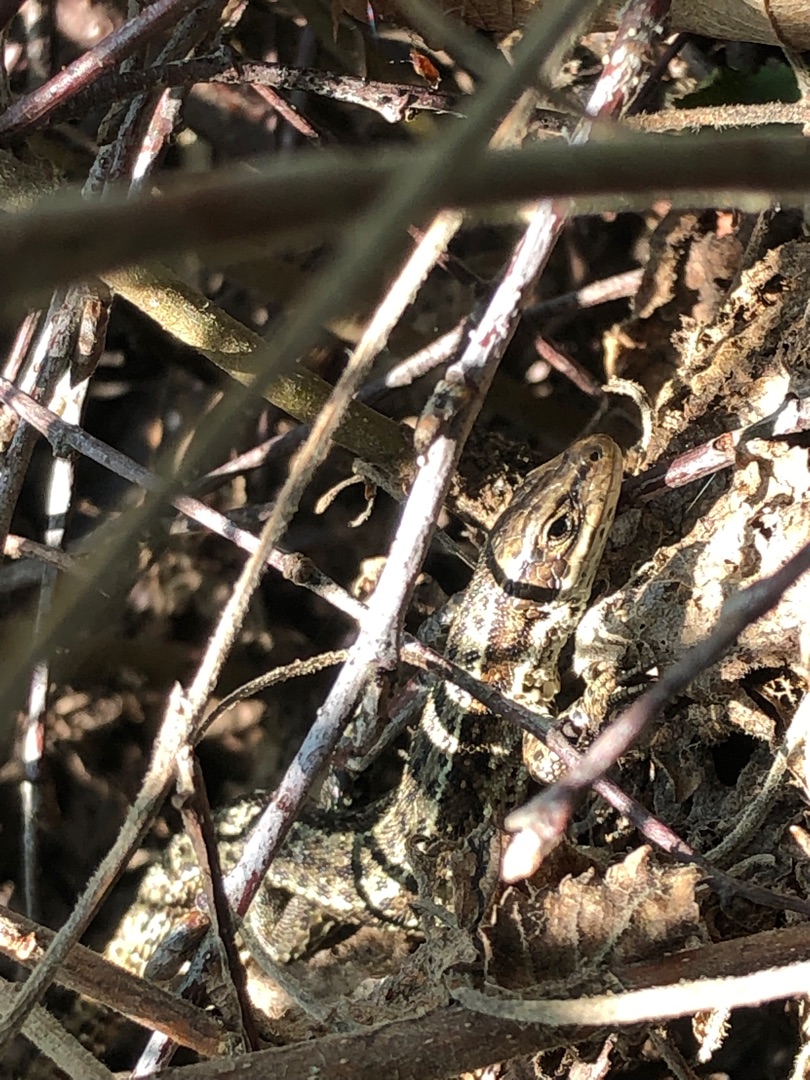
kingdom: Animalia
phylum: Chordata
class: Squamata
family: Lacertidae
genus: Zootoca
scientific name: Zootoca vivipara
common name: Skovfirben
